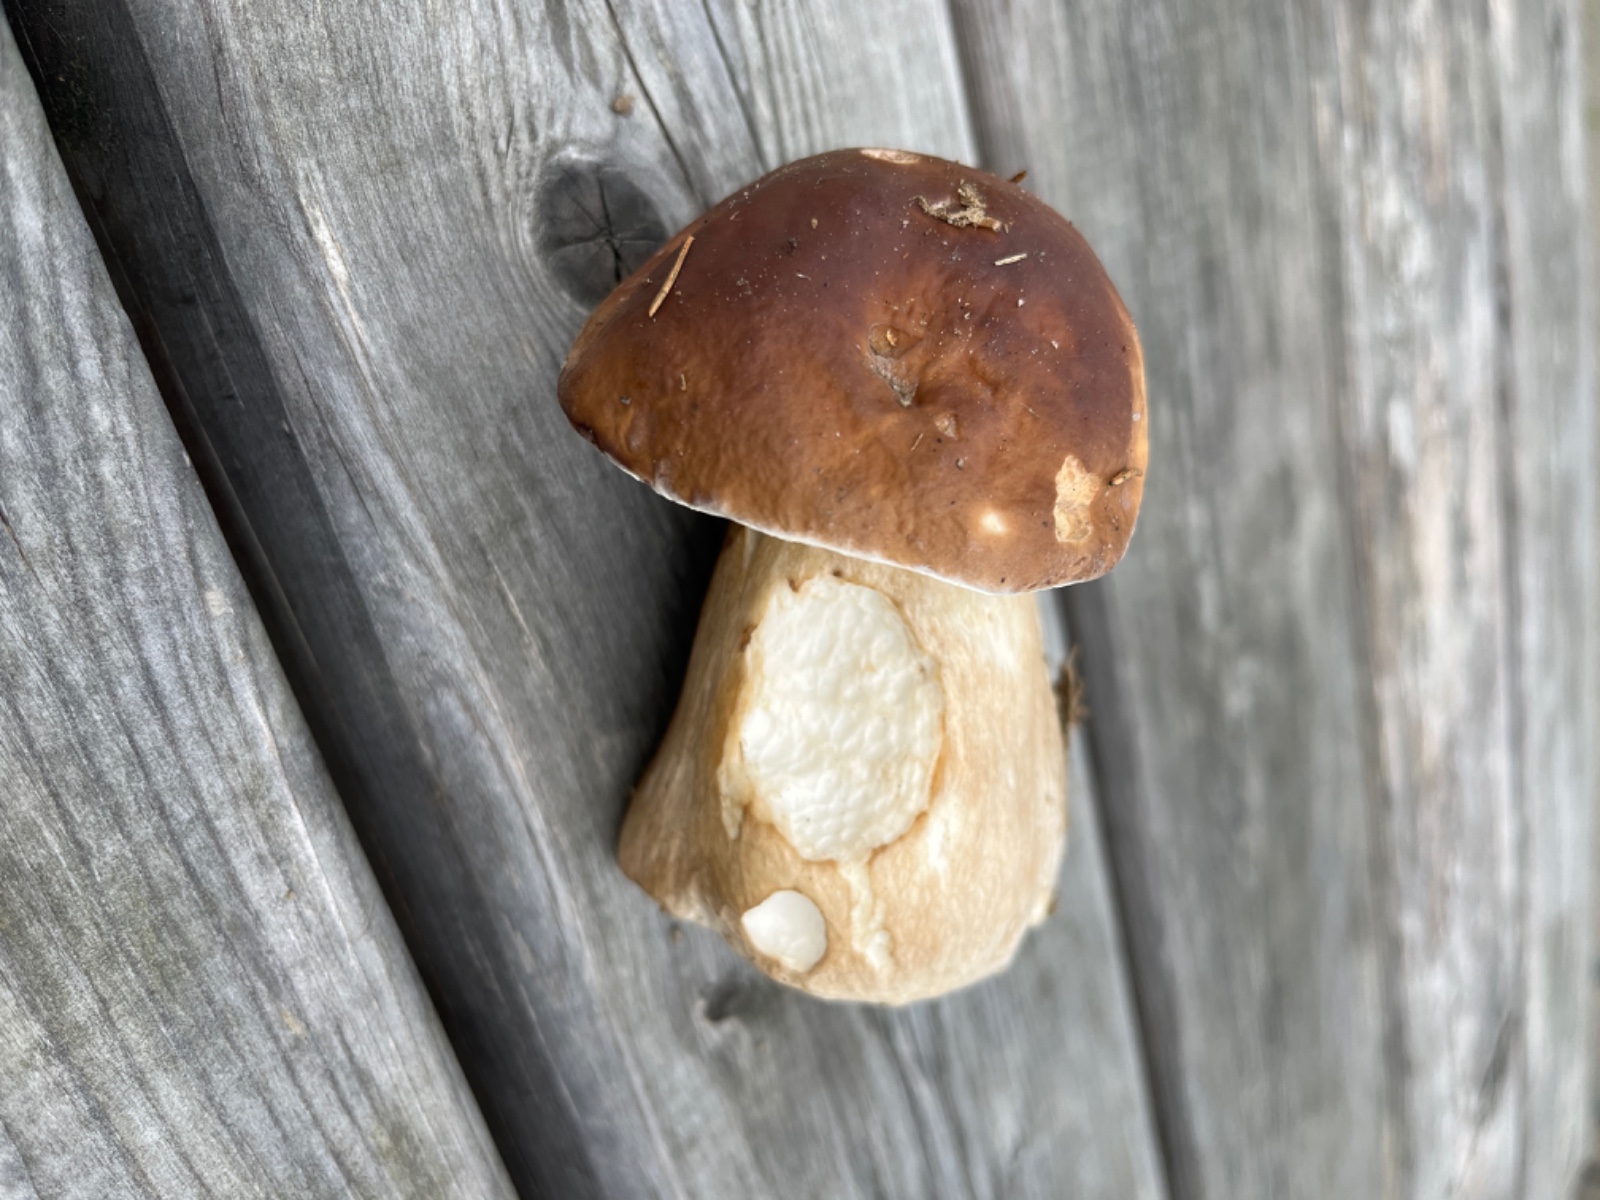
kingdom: Fungi
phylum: Basidiomycota
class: Agaricomycetes
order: Boletales
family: Boletaceae
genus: Boletus
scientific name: Boletus edulis
